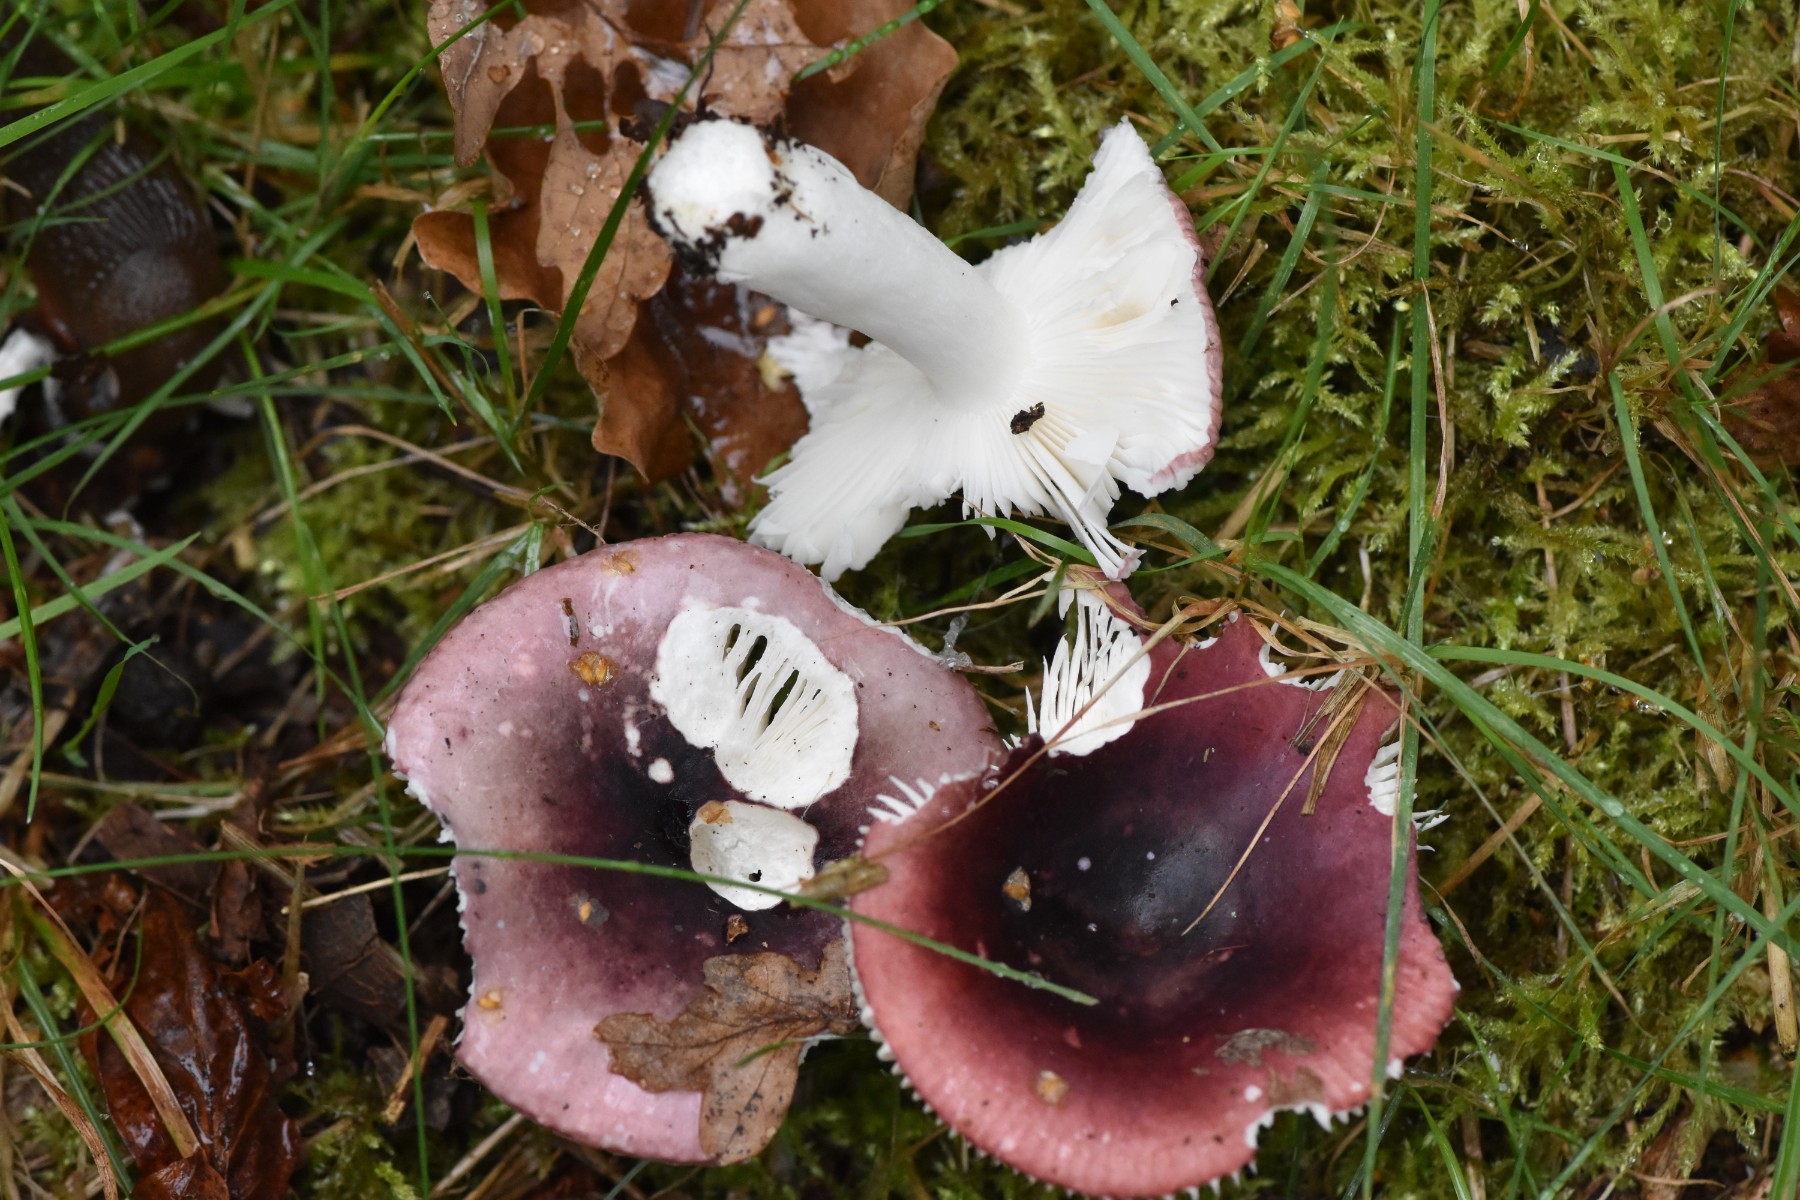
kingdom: Fungi
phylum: Basidiomycota
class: Agaricomycetes
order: Russulales
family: Russulaceae
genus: Russula
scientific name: Russula
